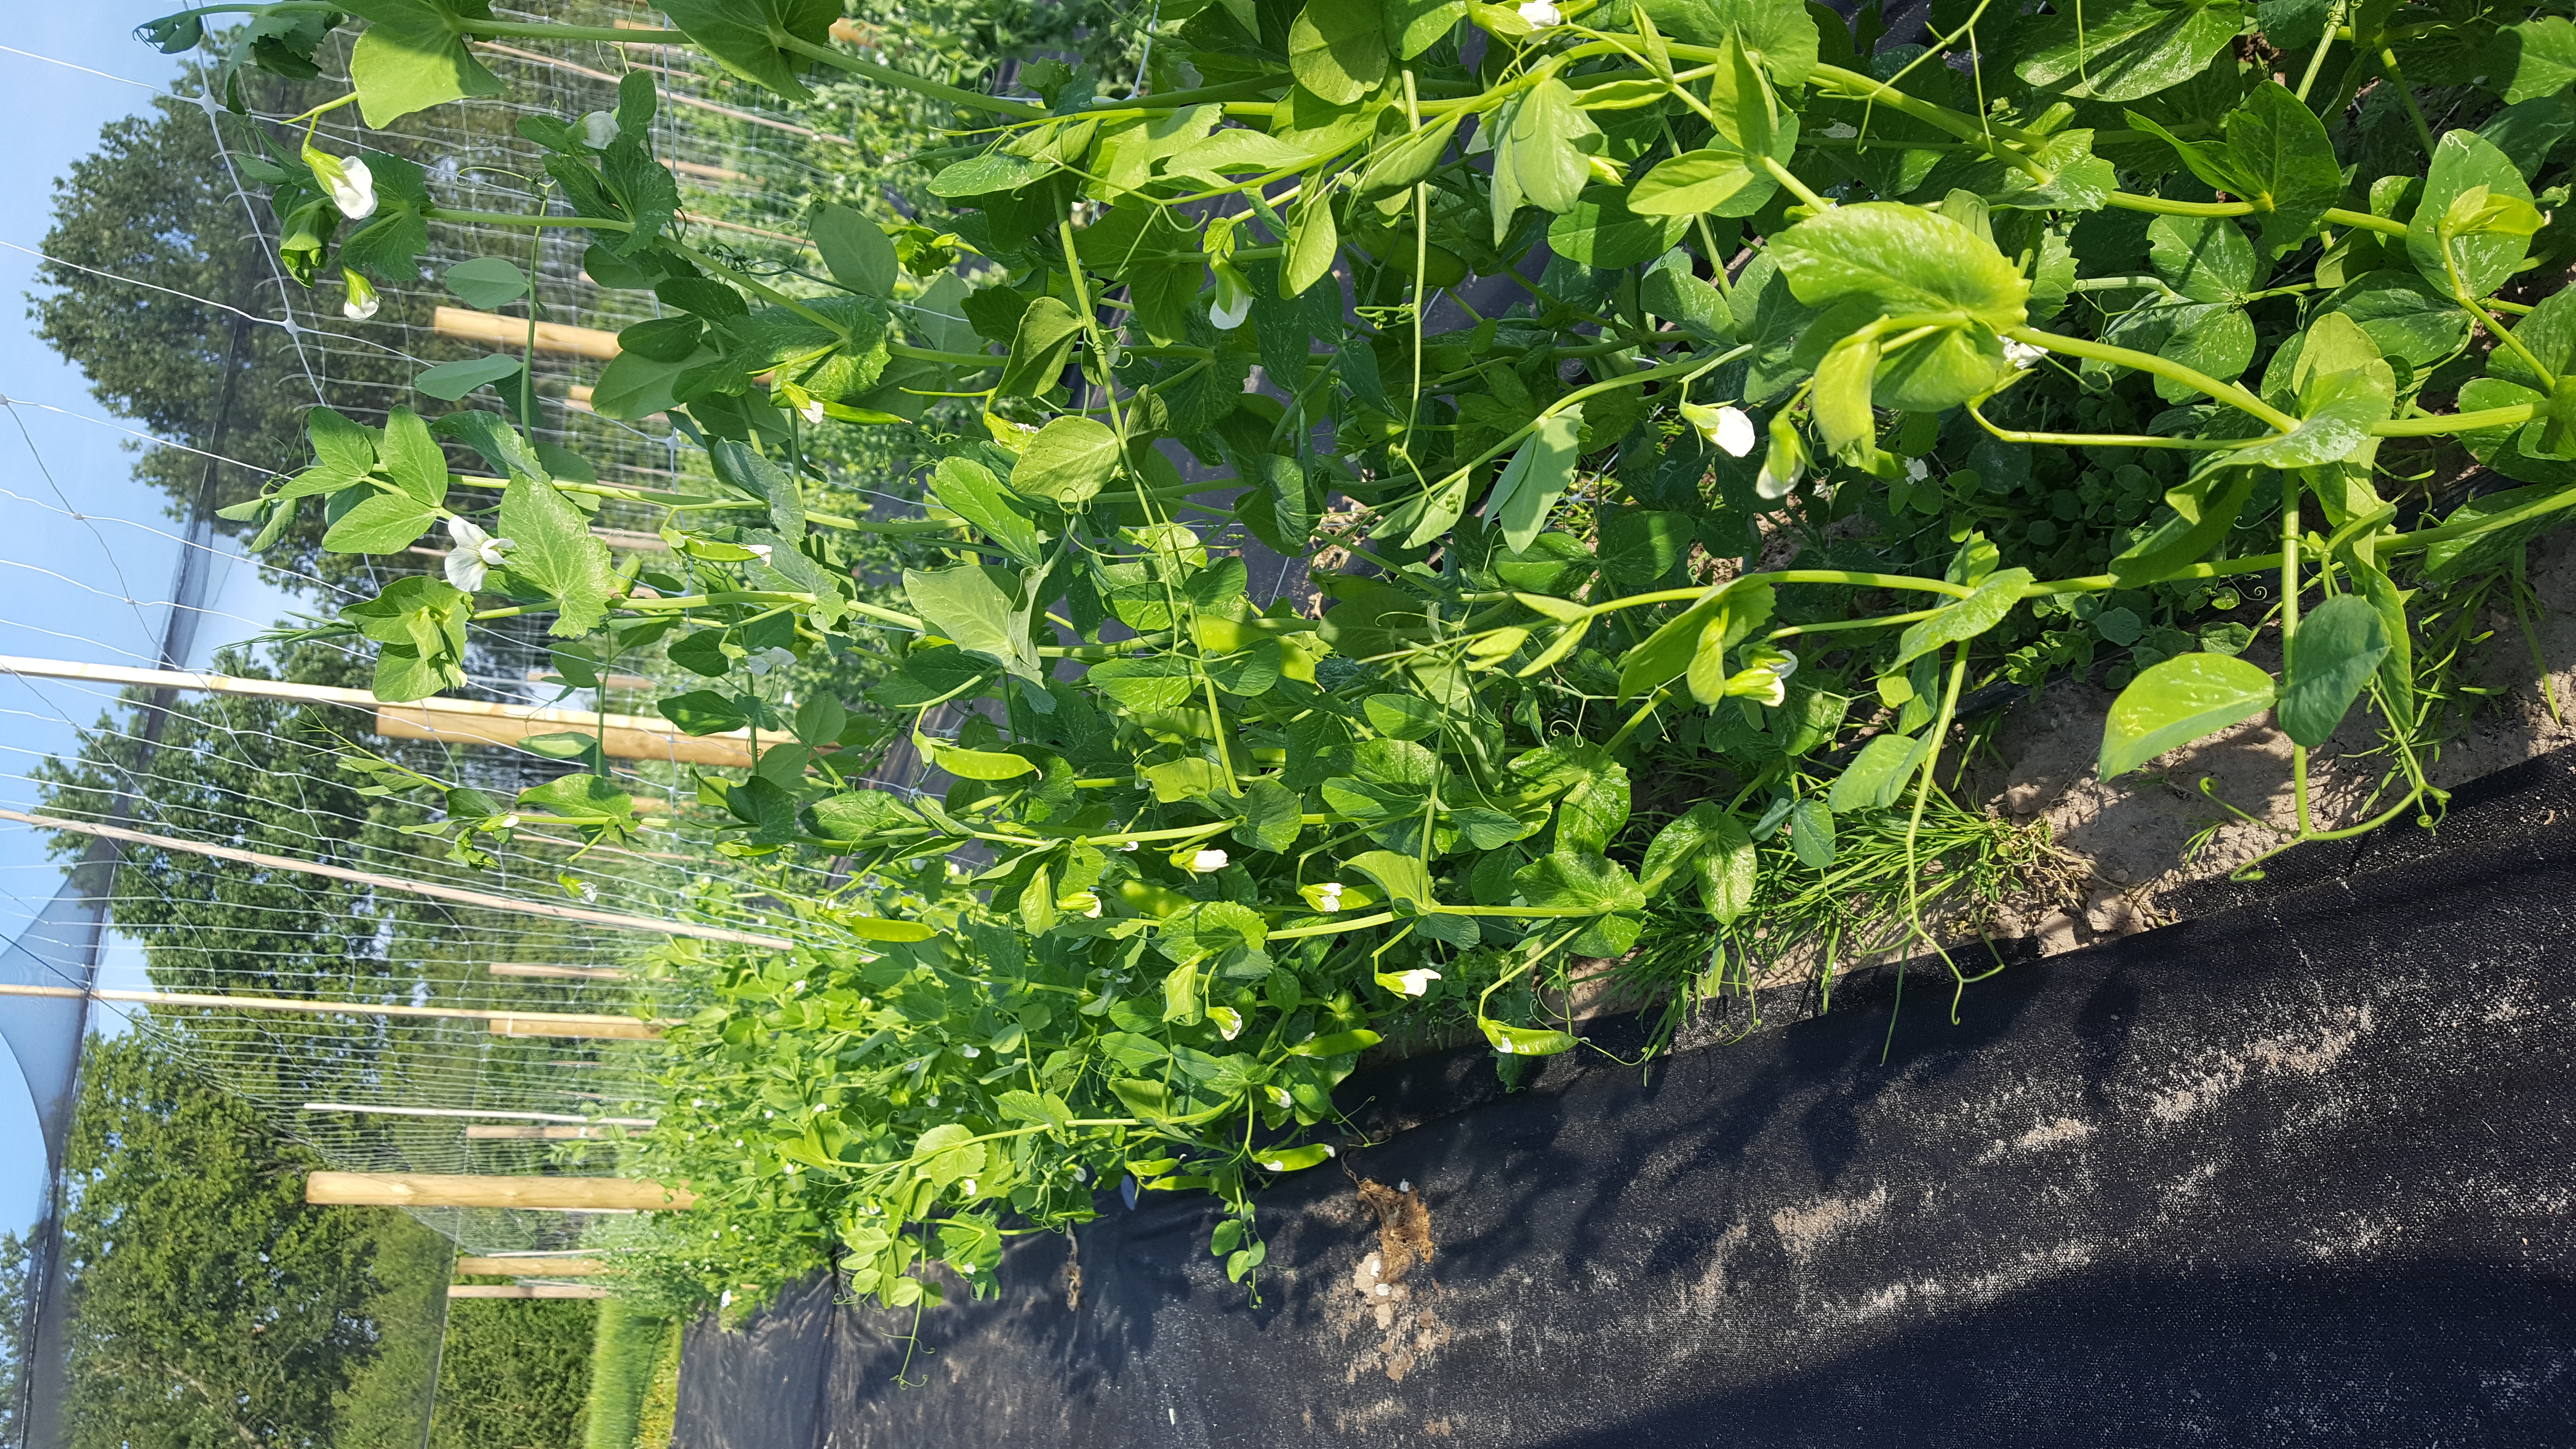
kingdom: Plantae
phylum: Tracheophyta
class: Magnoliopsida
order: Fabales
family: Fabaceae
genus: Lathyrus
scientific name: Lathyrus oleraceus
